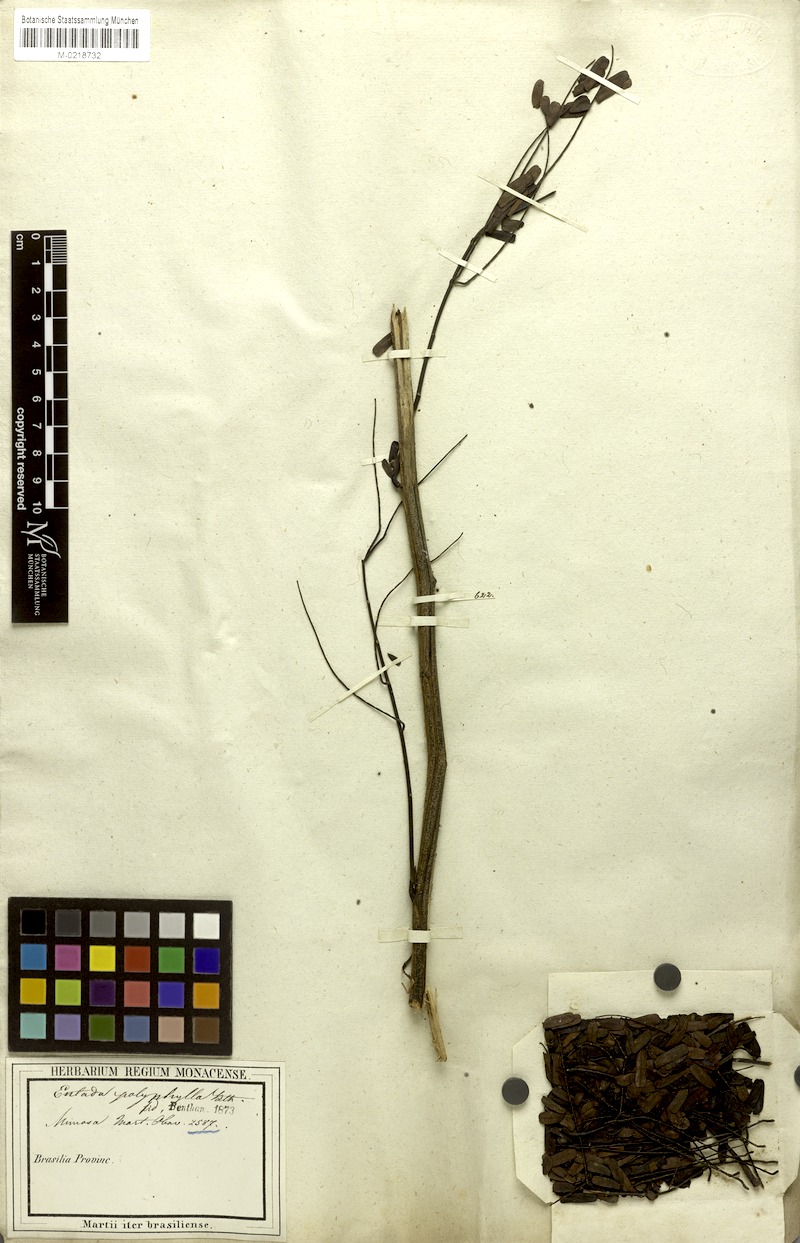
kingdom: Plantae
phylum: Tracheophyta
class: Magnoliopsida
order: Fabales
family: Fabaceae
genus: Entada
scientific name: Entada polyphylla
